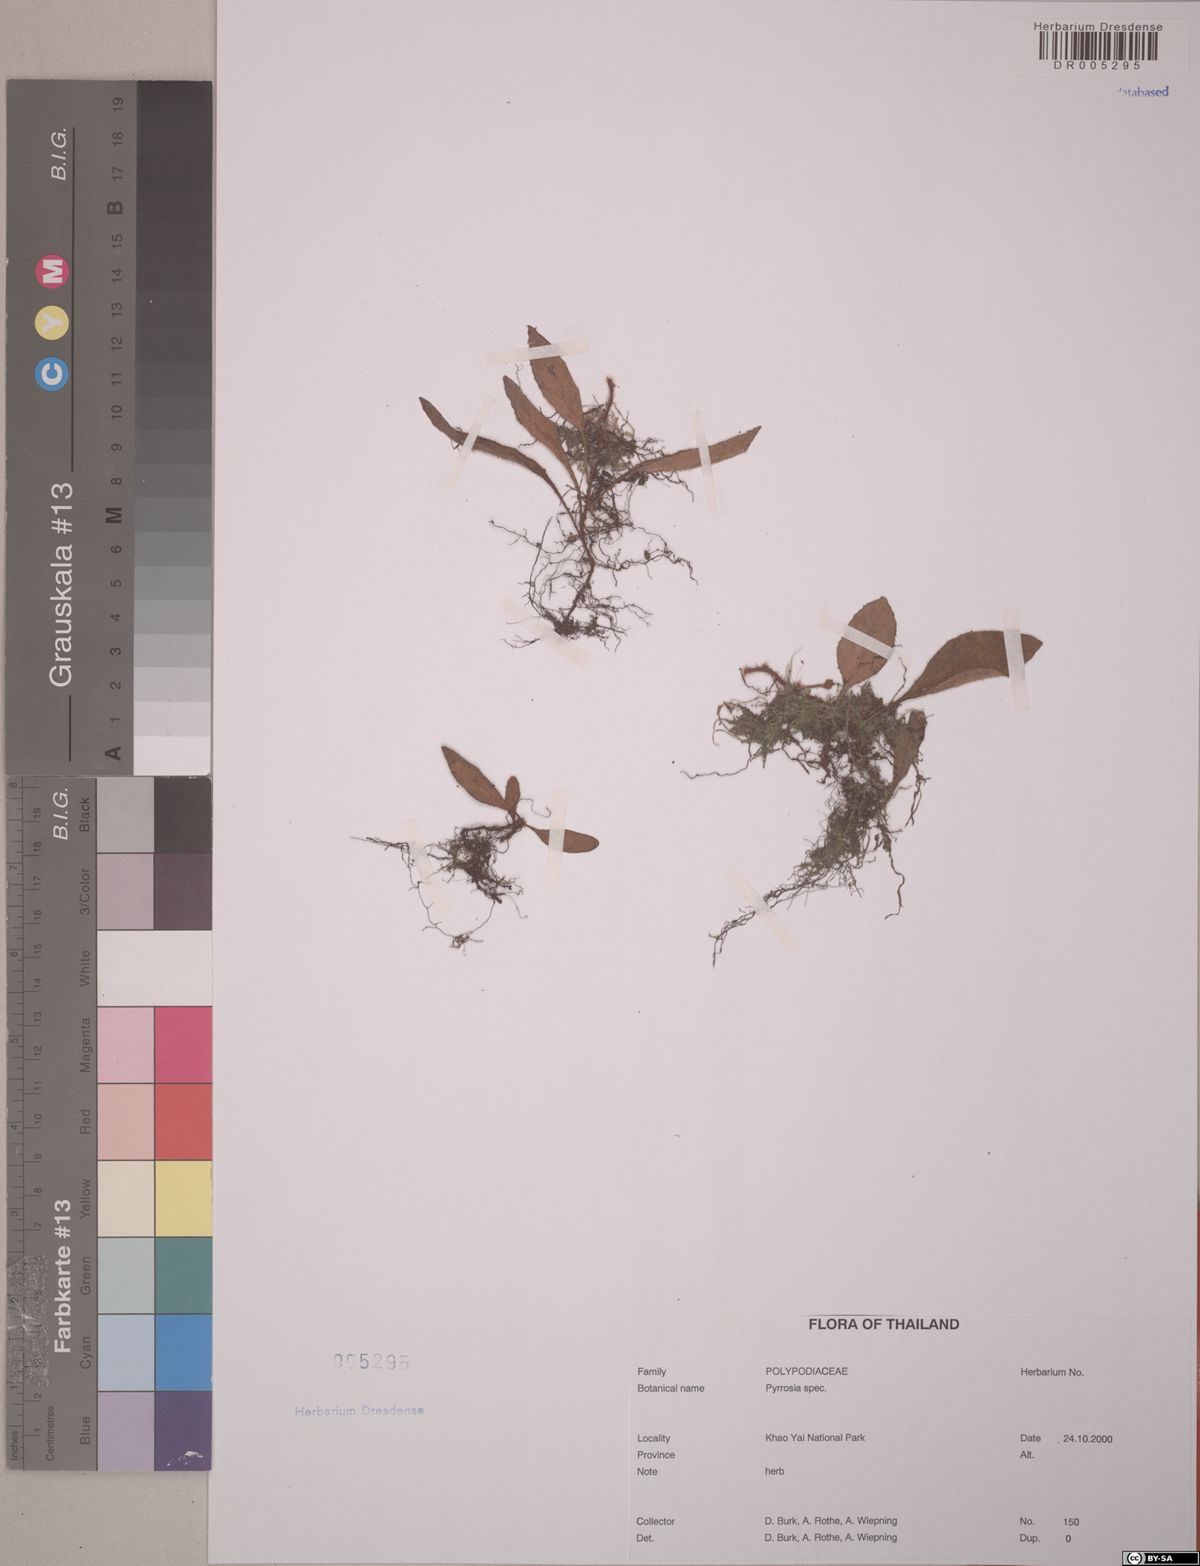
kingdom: Plantae
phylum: Tracheophyta
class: Polypodiopsida
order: Polypodiales
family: Polypodiaceae
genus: Pyrrosia
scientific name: Pyrrosia
